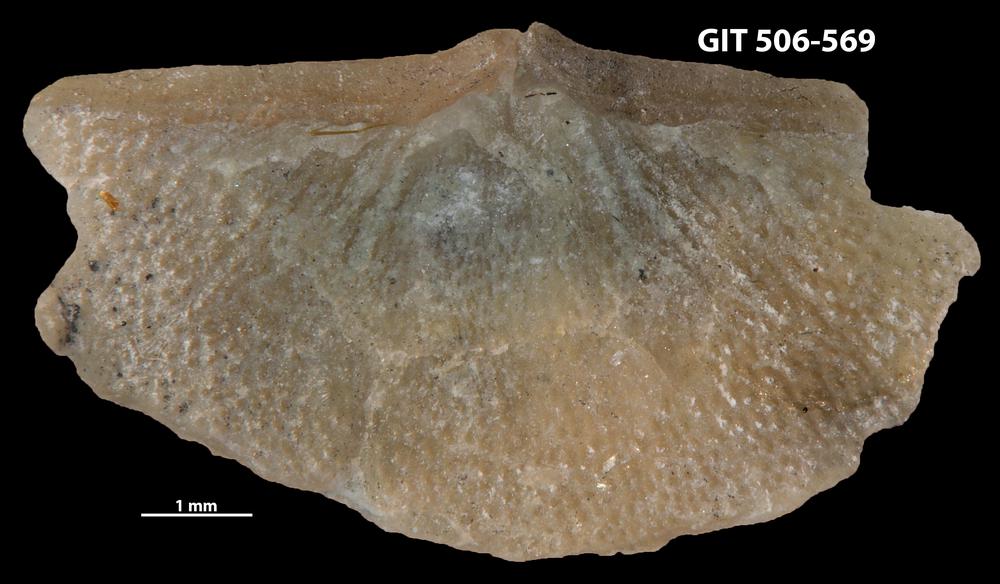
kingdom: Animalia
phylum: Brachiopoda
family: Oldhaminidae
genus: Eoplectodonta
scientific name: Eoplectodonta exceptionis
